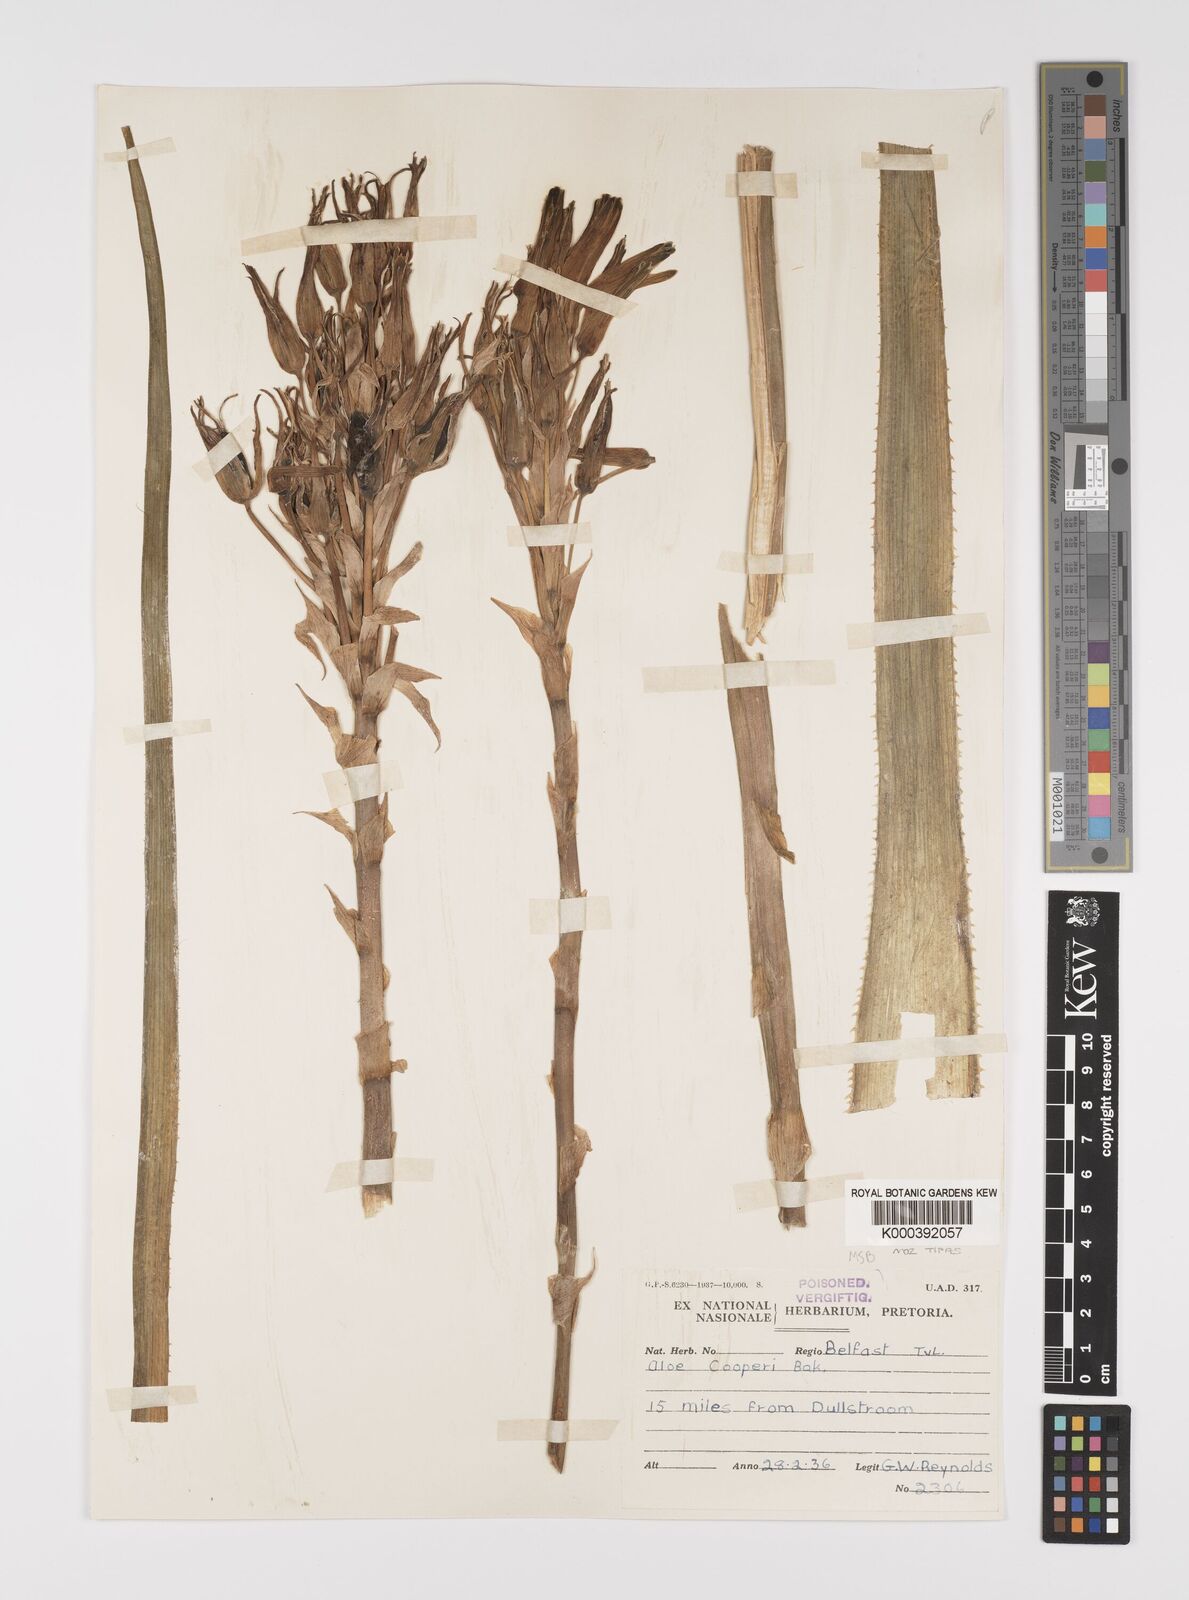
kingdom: Plantae
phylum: Tracheophyta
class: Liliopsida
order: Asparagales
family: Asphodelaceae
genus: Aloe
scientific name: Aloe cooperi
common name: Cooper's aloe
